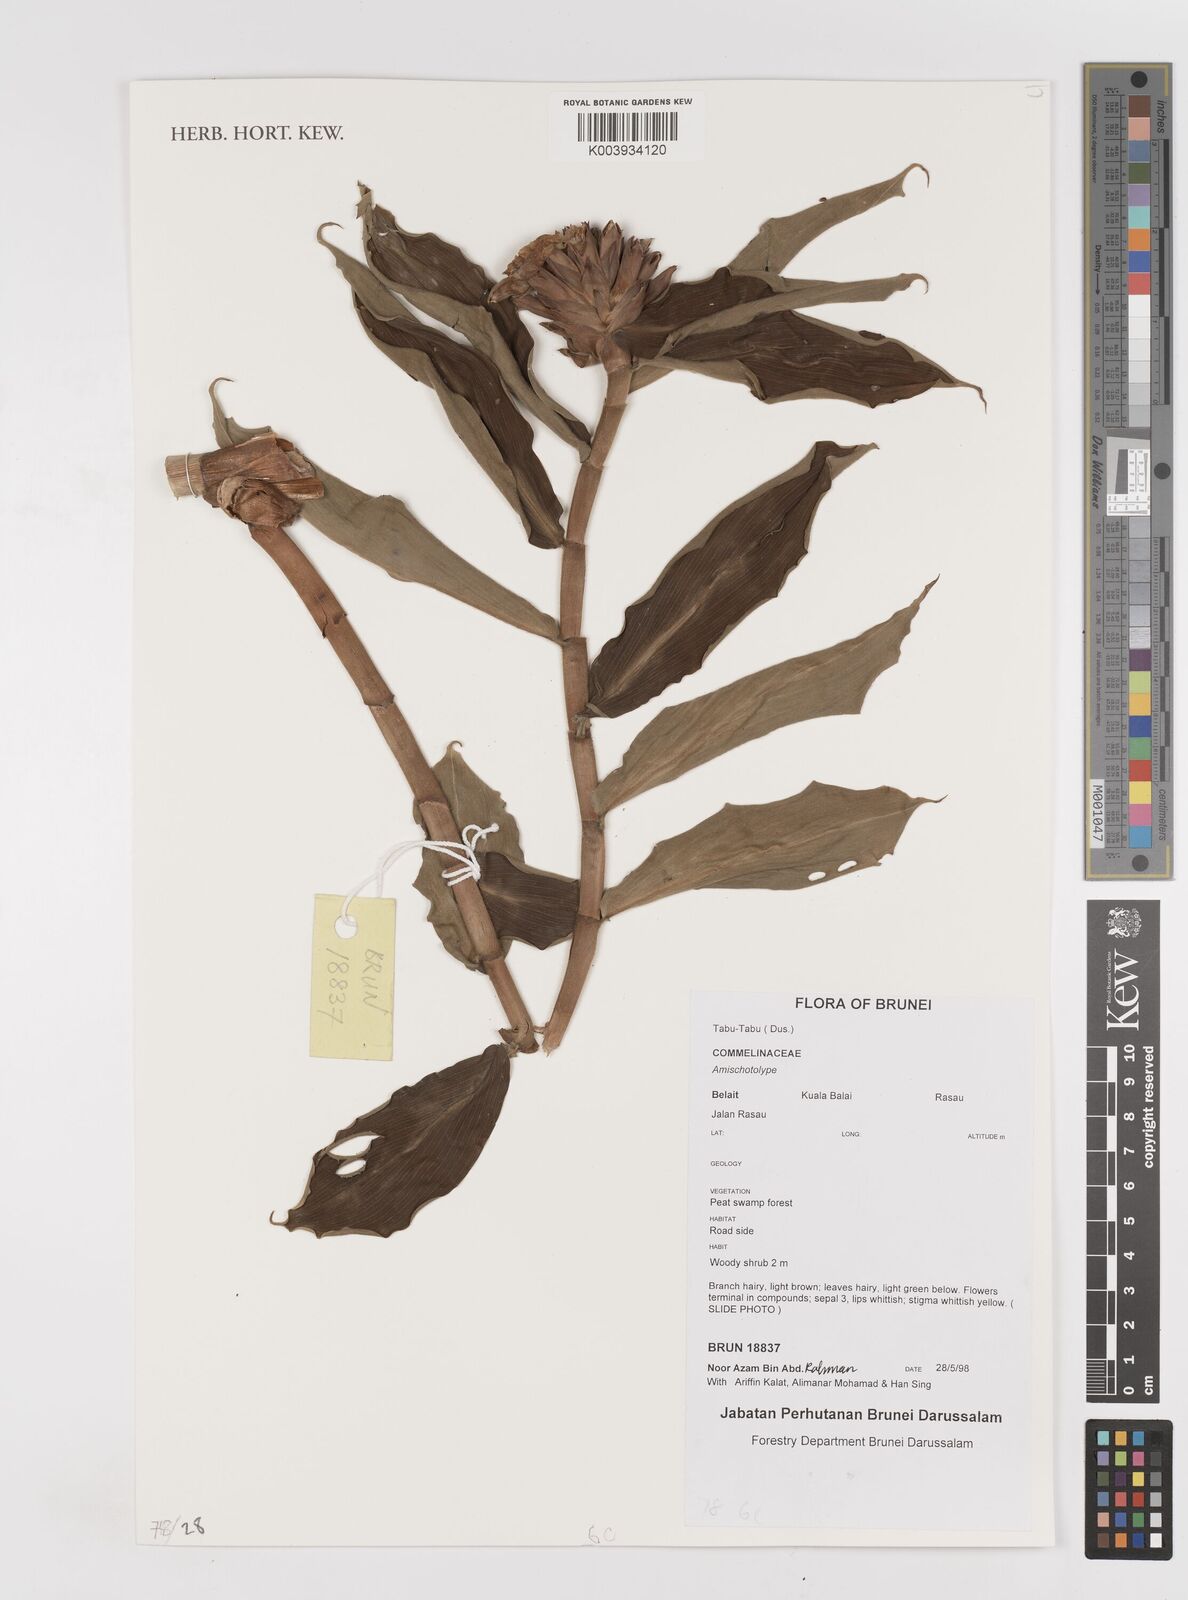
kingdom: Plantae
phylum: Tracheophyta
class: Liliopsida
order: Commelinales
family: Commelinaceae
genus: Amischotolype
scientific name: Amischotolype
